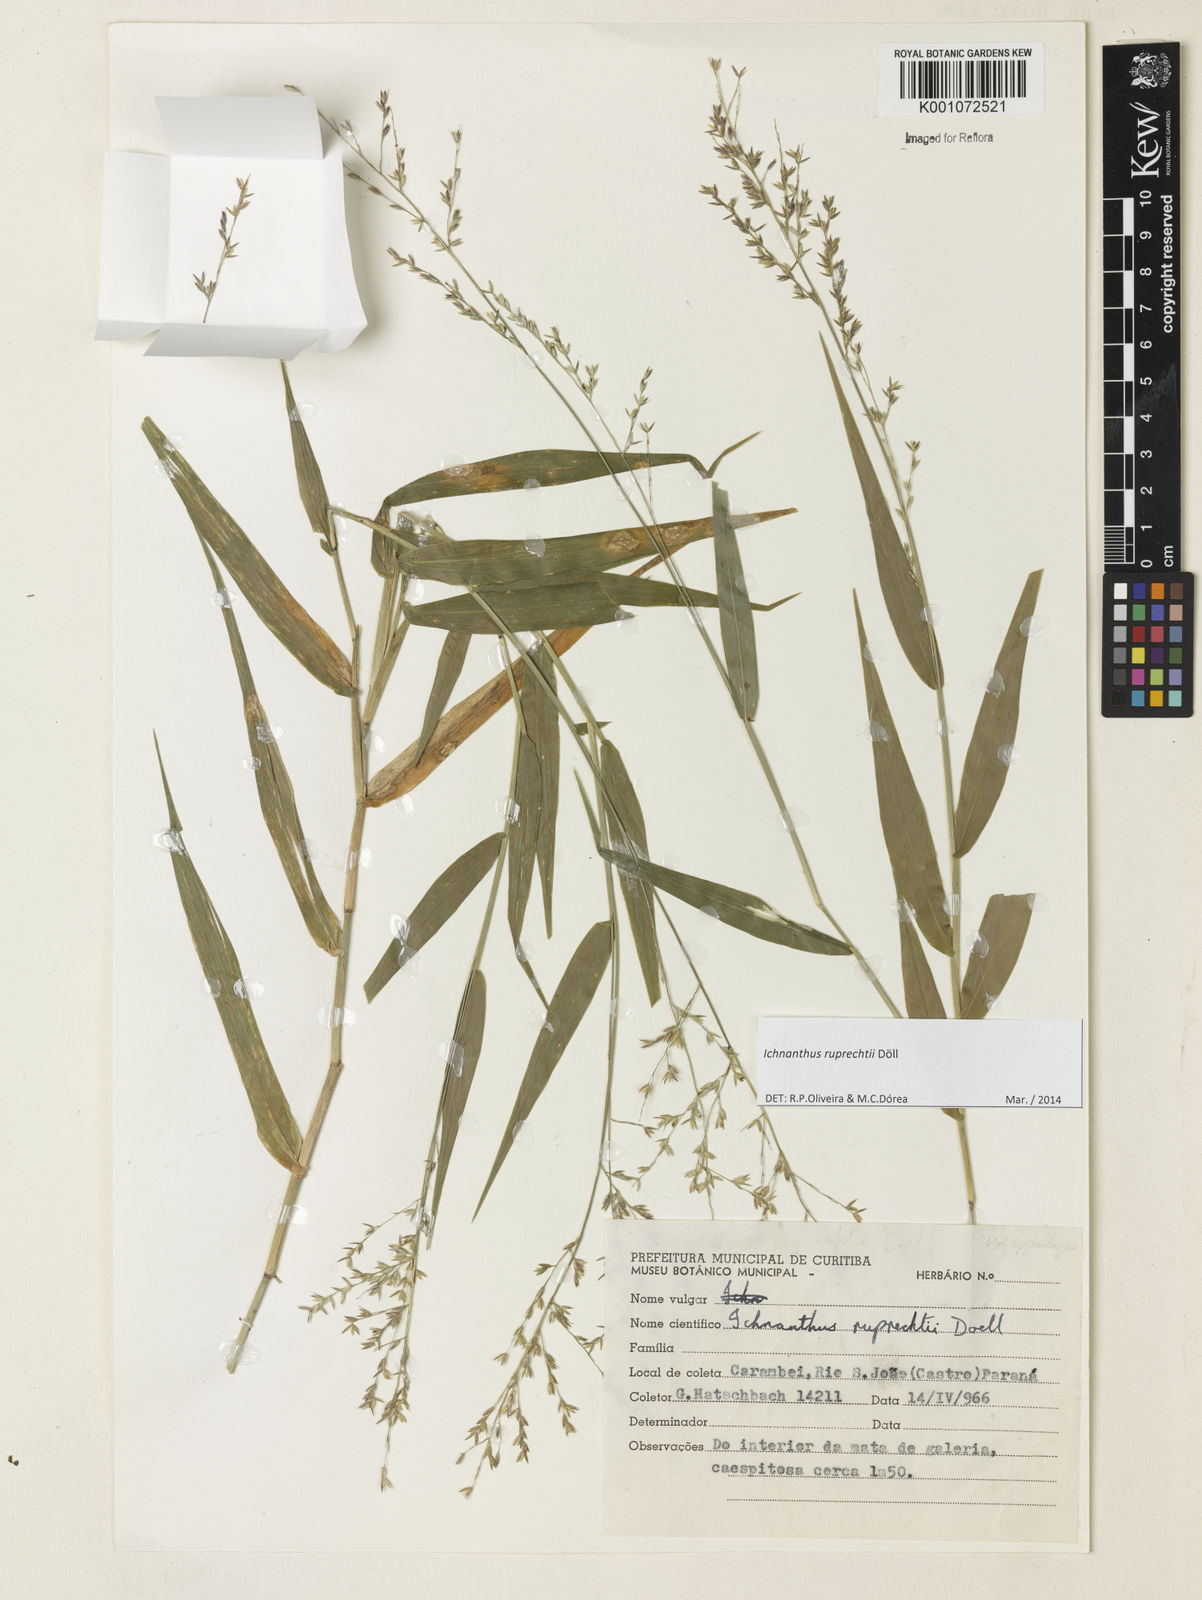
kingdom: Plantae
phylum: Tracheophyta
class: Liliopsida
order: Poales
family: Poaceae
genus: Ichnanthus
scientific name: Ichnanthus
